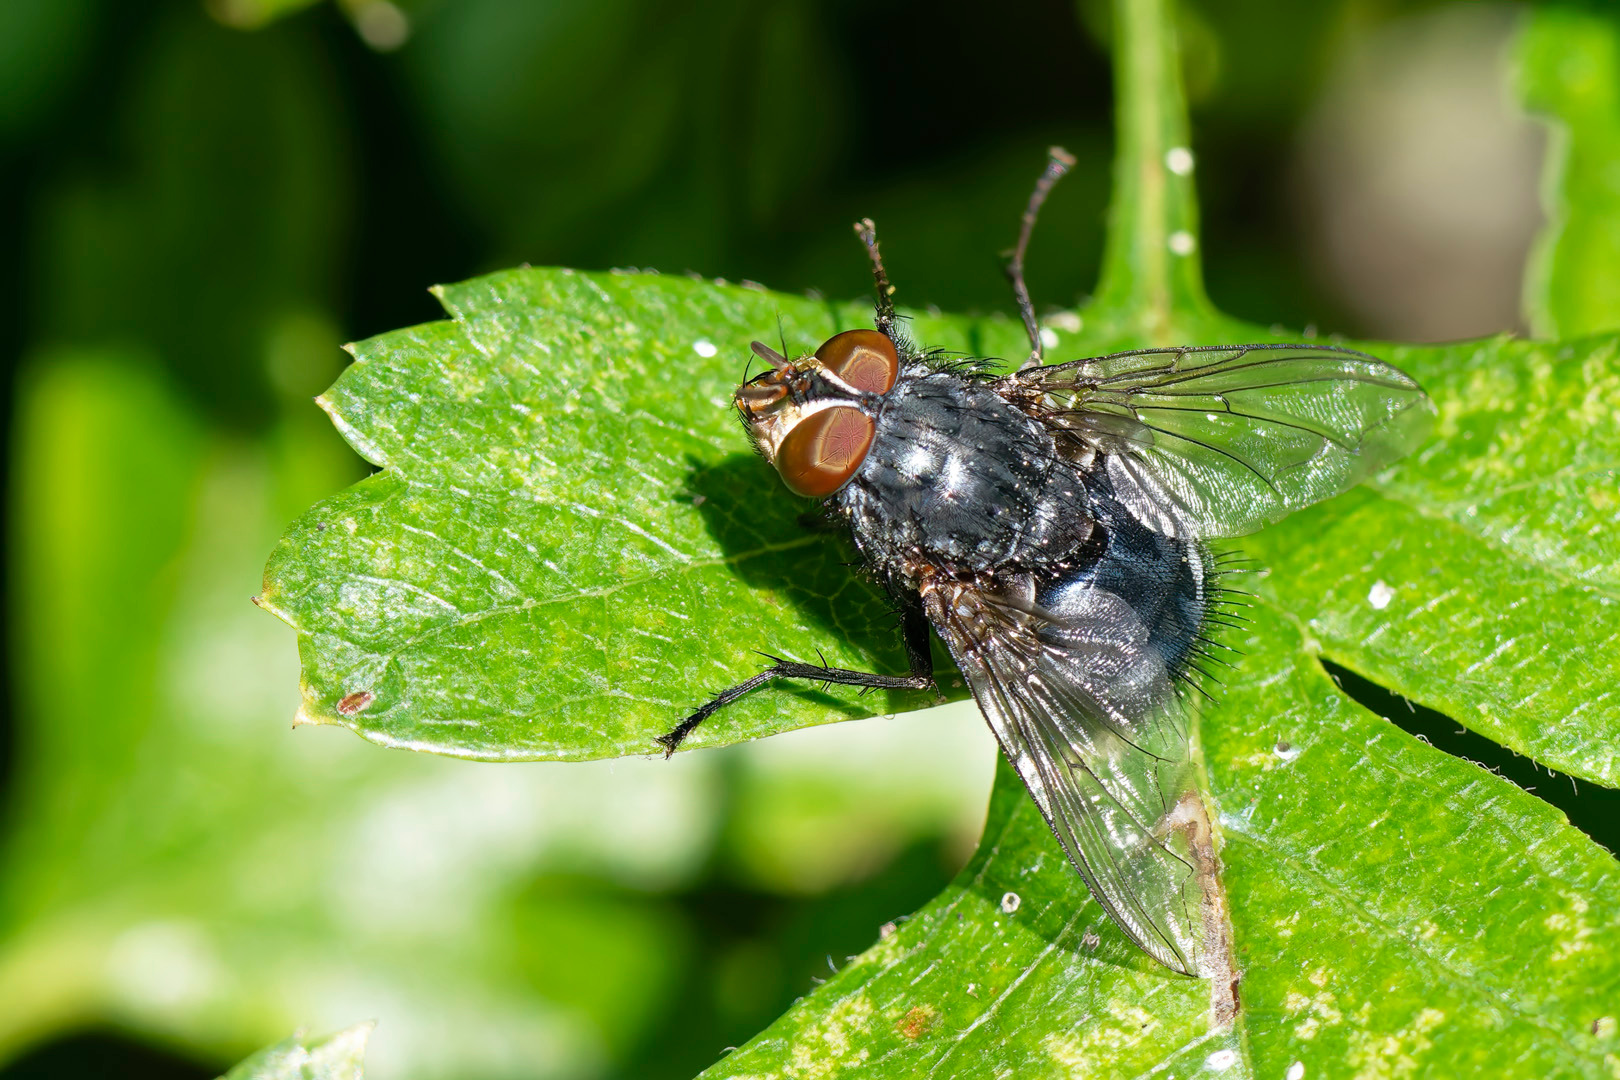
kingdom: Animalia
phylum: Arthropoda
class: Insecta
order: Diptera
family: Calliphoridae
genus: Calliphora
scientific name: Calliphora vicina
